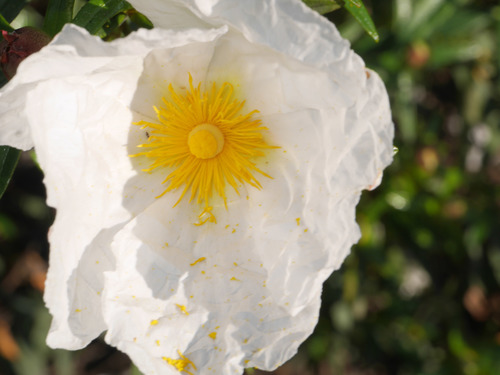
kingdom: Plantae
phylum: Tracheophyta
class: Magnoliopsida
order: Malvales
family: Cistaceae
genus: Cistus
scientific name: Cistus ladanifer
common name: Common gum cistus
